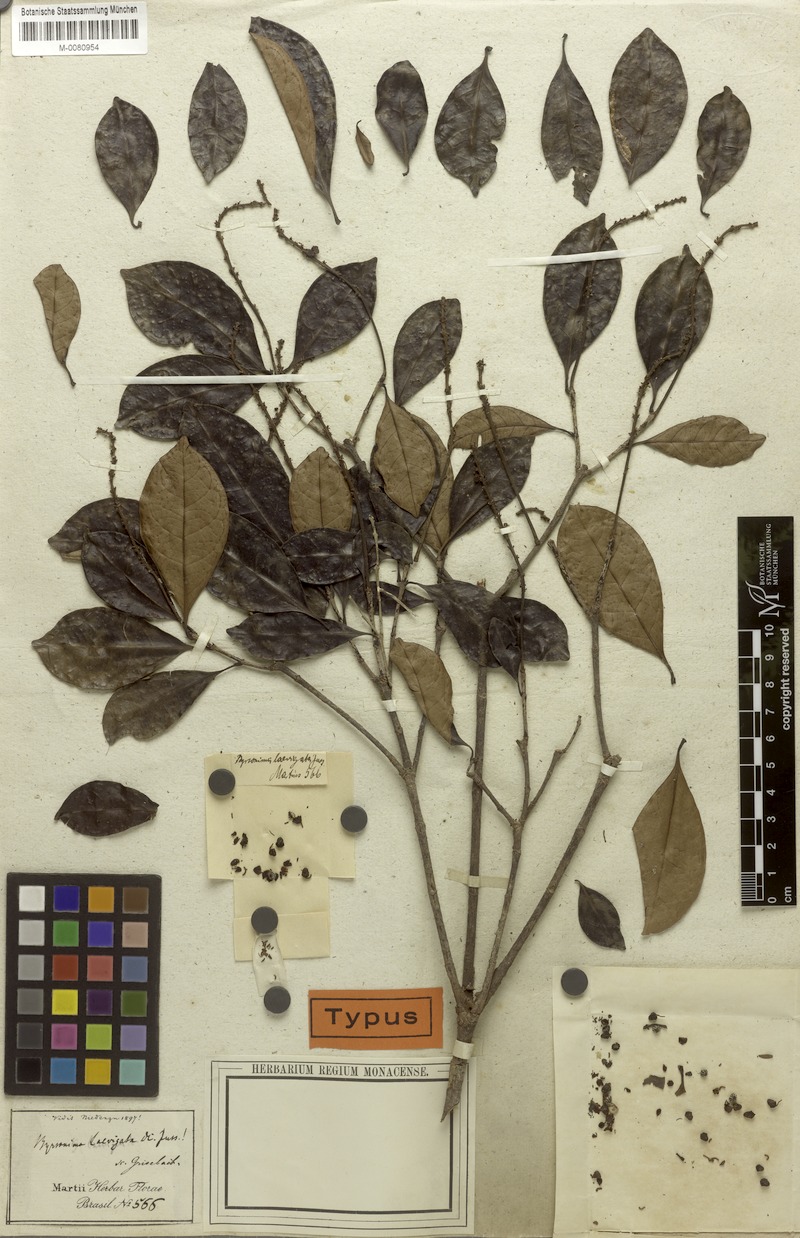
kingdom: Plantae
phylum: Tracheophyta
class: Magnoliopsida
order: Malpighiales
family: Malpighiaceae
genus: Byrsonima
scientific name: Byrsonima laevigata
